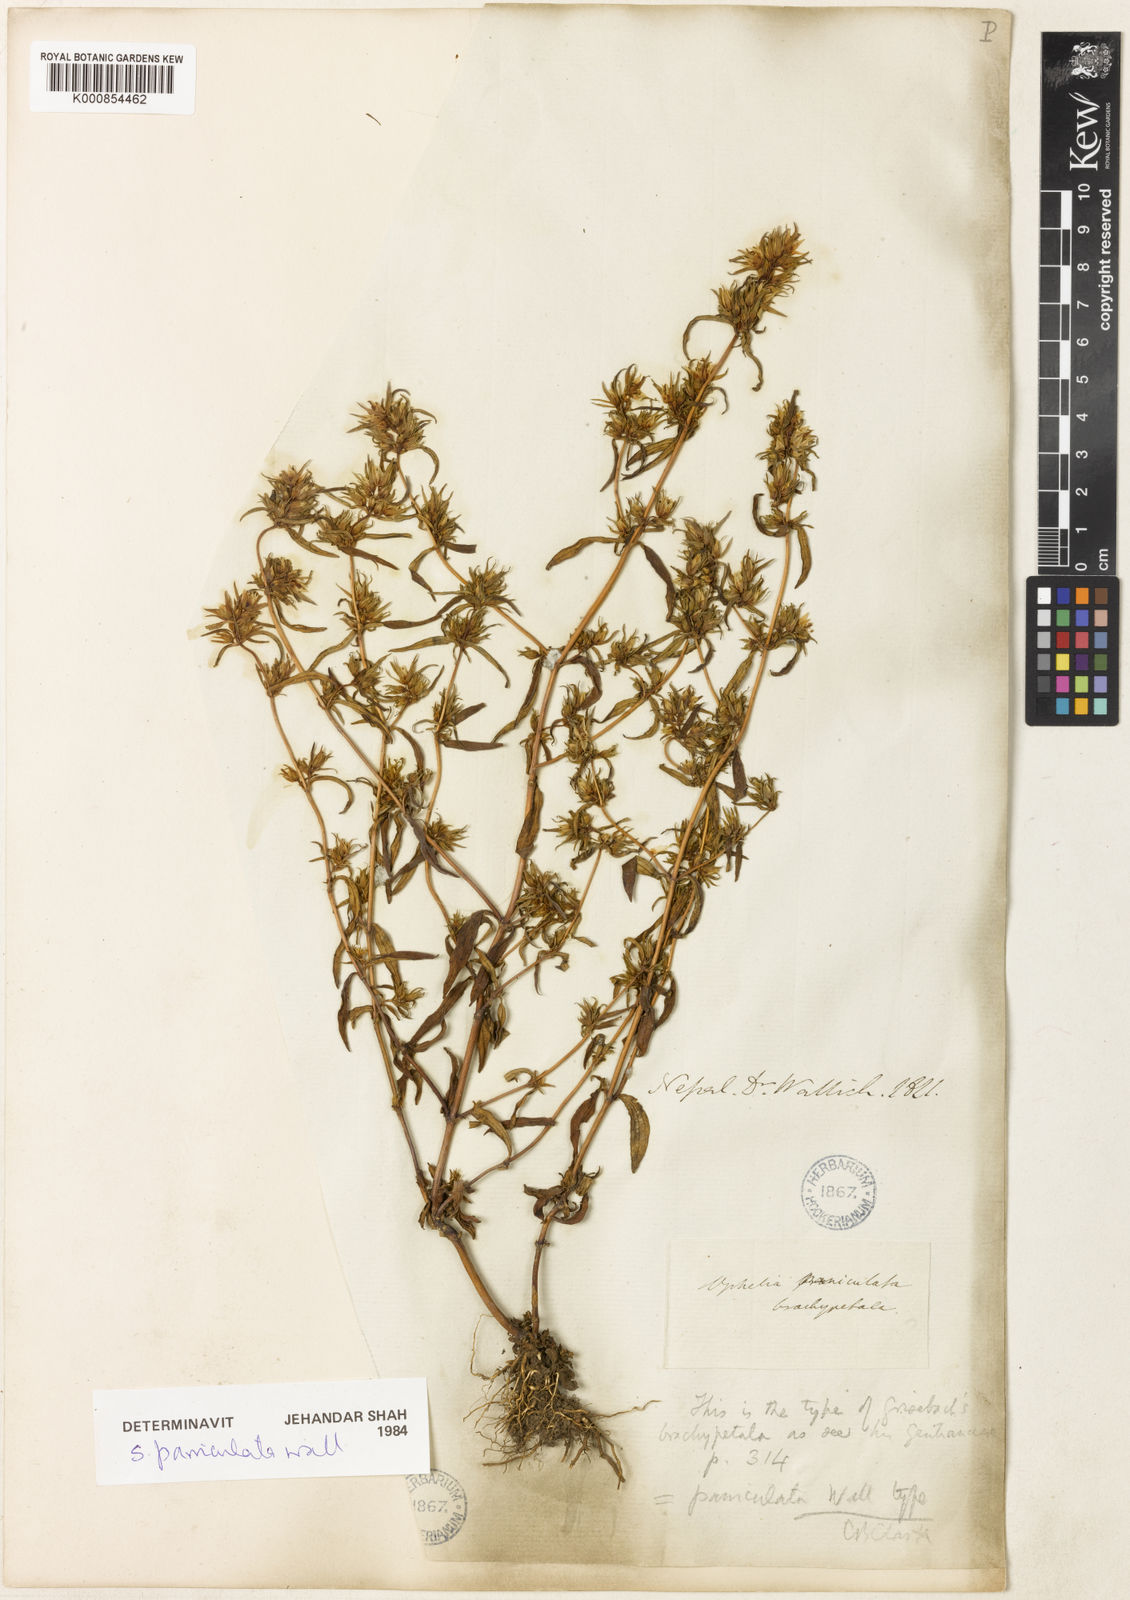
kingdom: Plantae
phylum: Tracheophyta
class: Magnoliopsida
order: Gentianales
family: Gentianaceae
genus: Swertia
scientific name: Swertia paniculata
